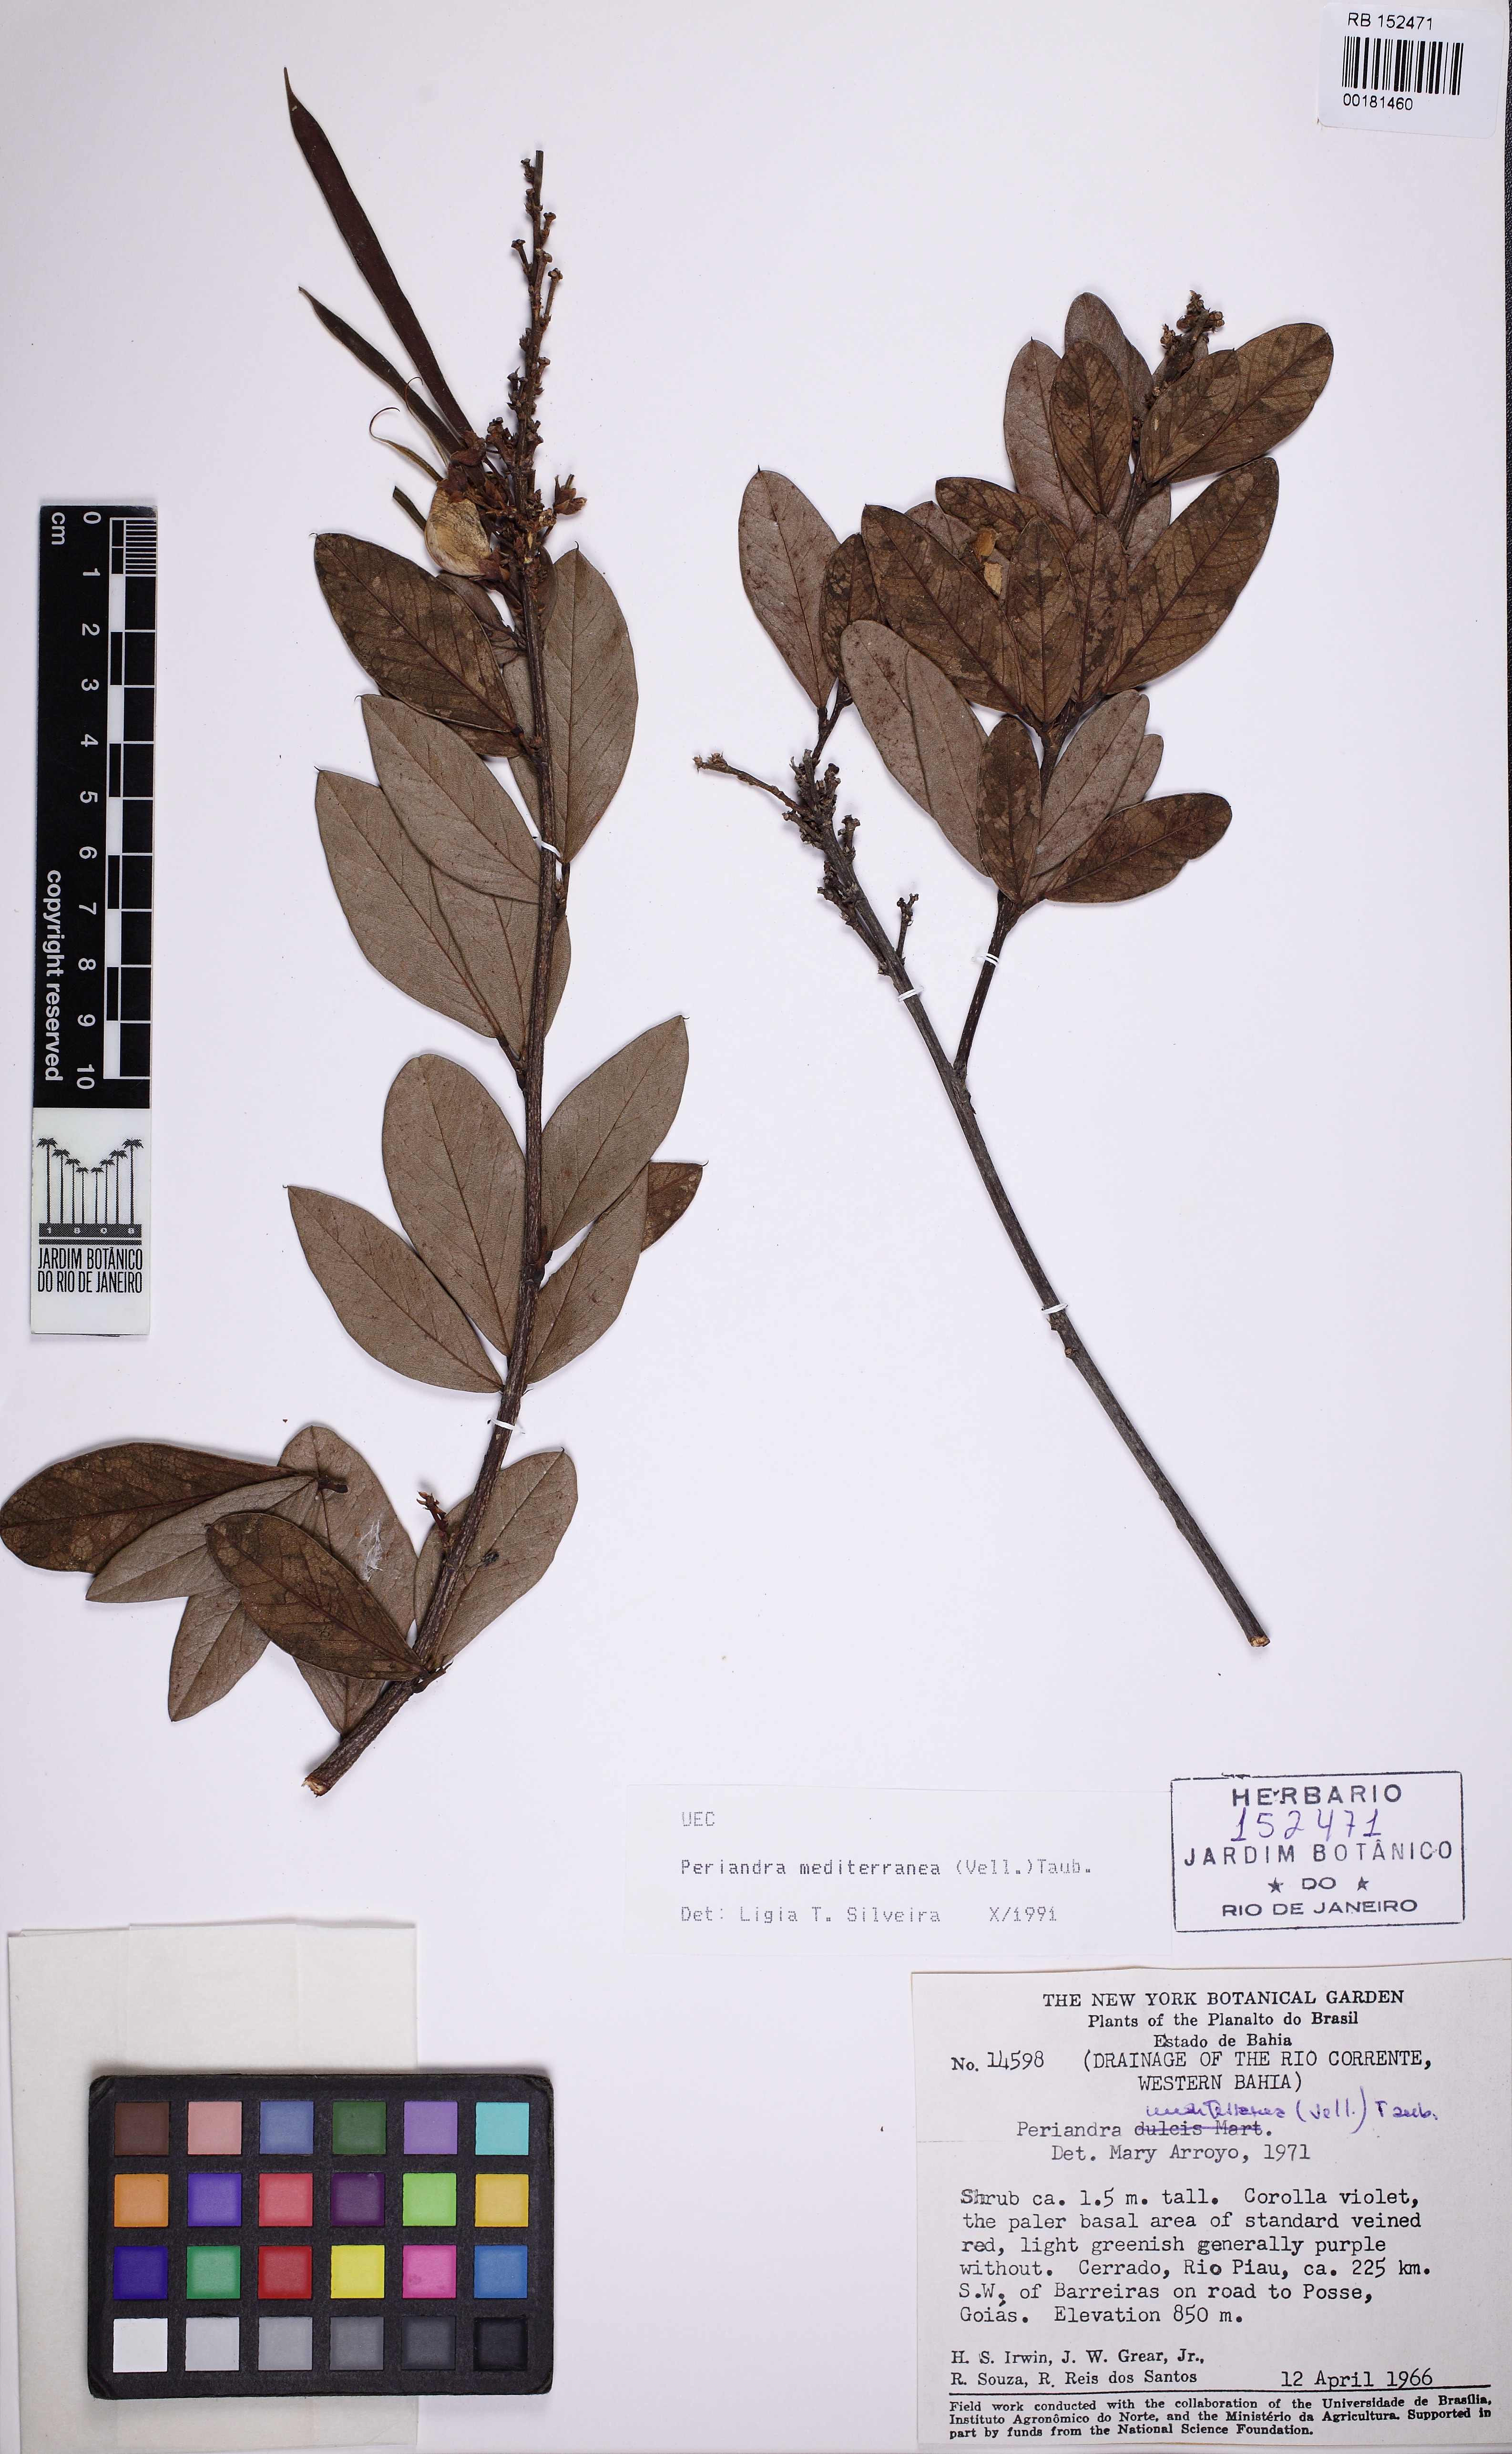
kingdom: Plantae
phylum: Tracheophyta
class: Magnoliopsida
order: Fabales
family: Fabaceae
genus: Periandra
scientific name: Periandra mediterranea
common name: Brazilian licorice
